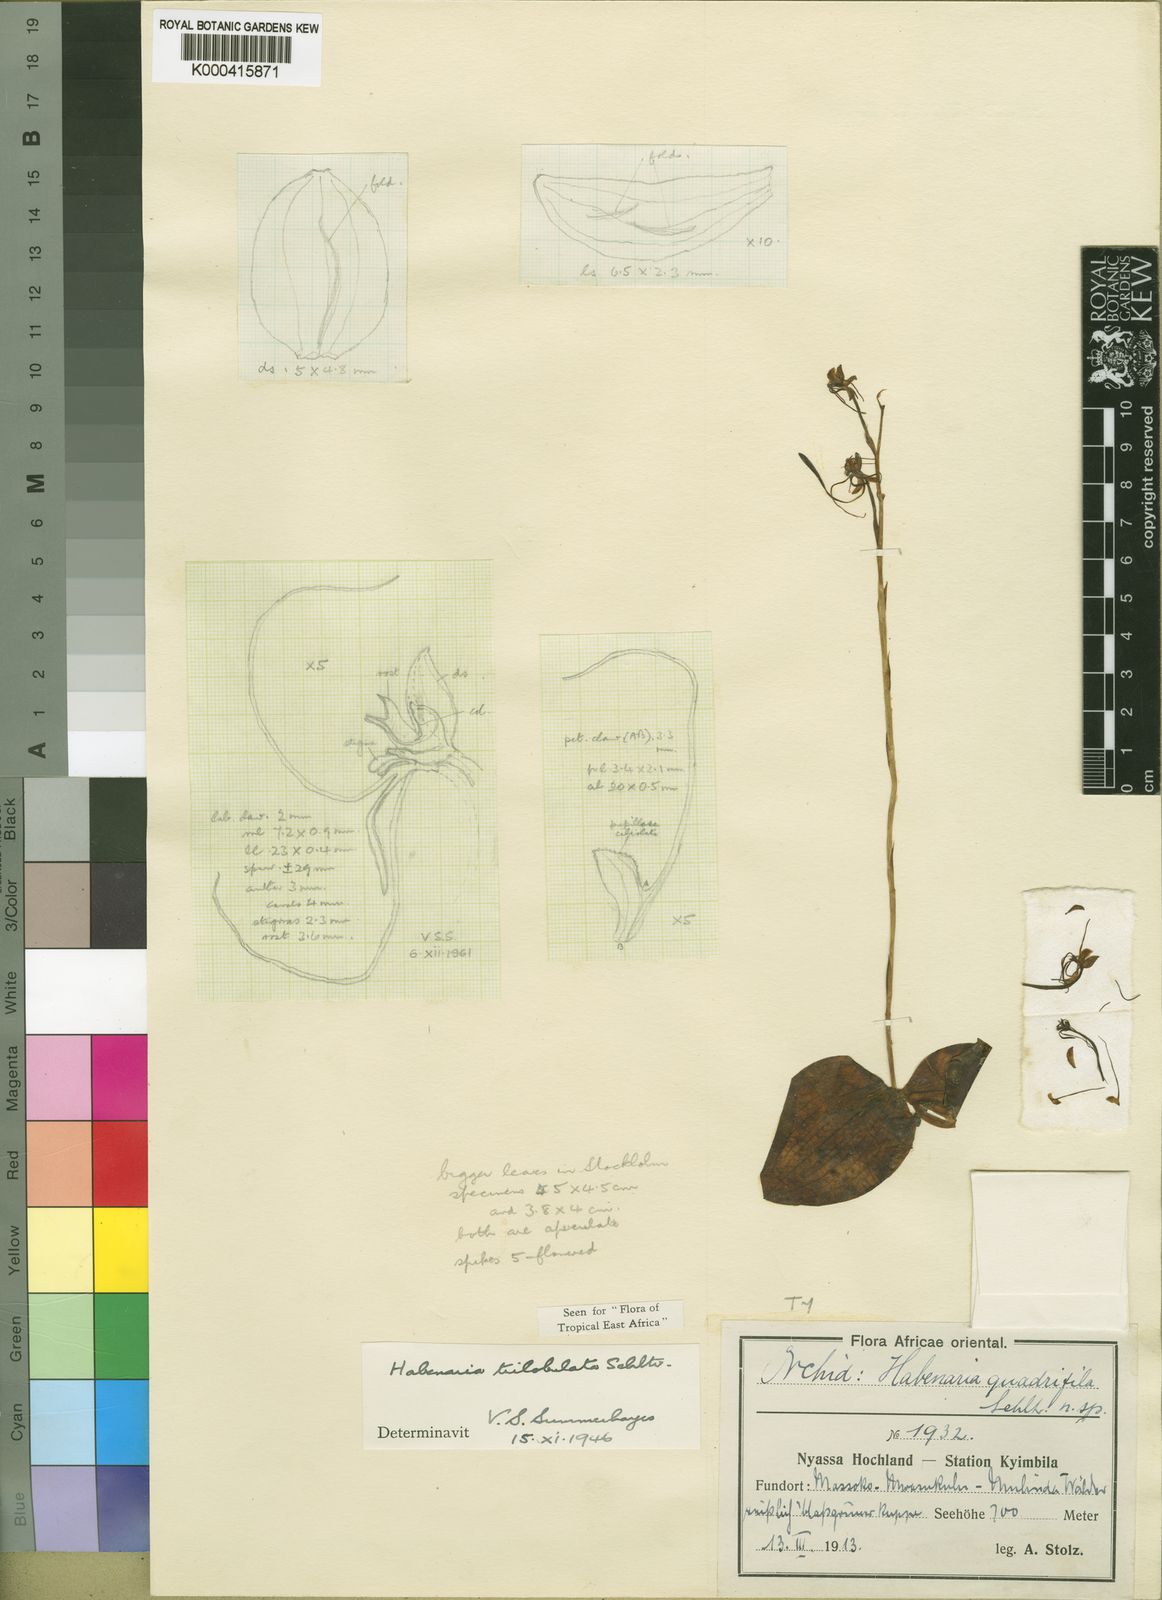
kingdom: Plantae
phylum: Tracheophyta
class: Liliopsida
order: Asparagales
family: Orchidaceae
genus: Habenaria
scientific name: Habenaria trilobulata
